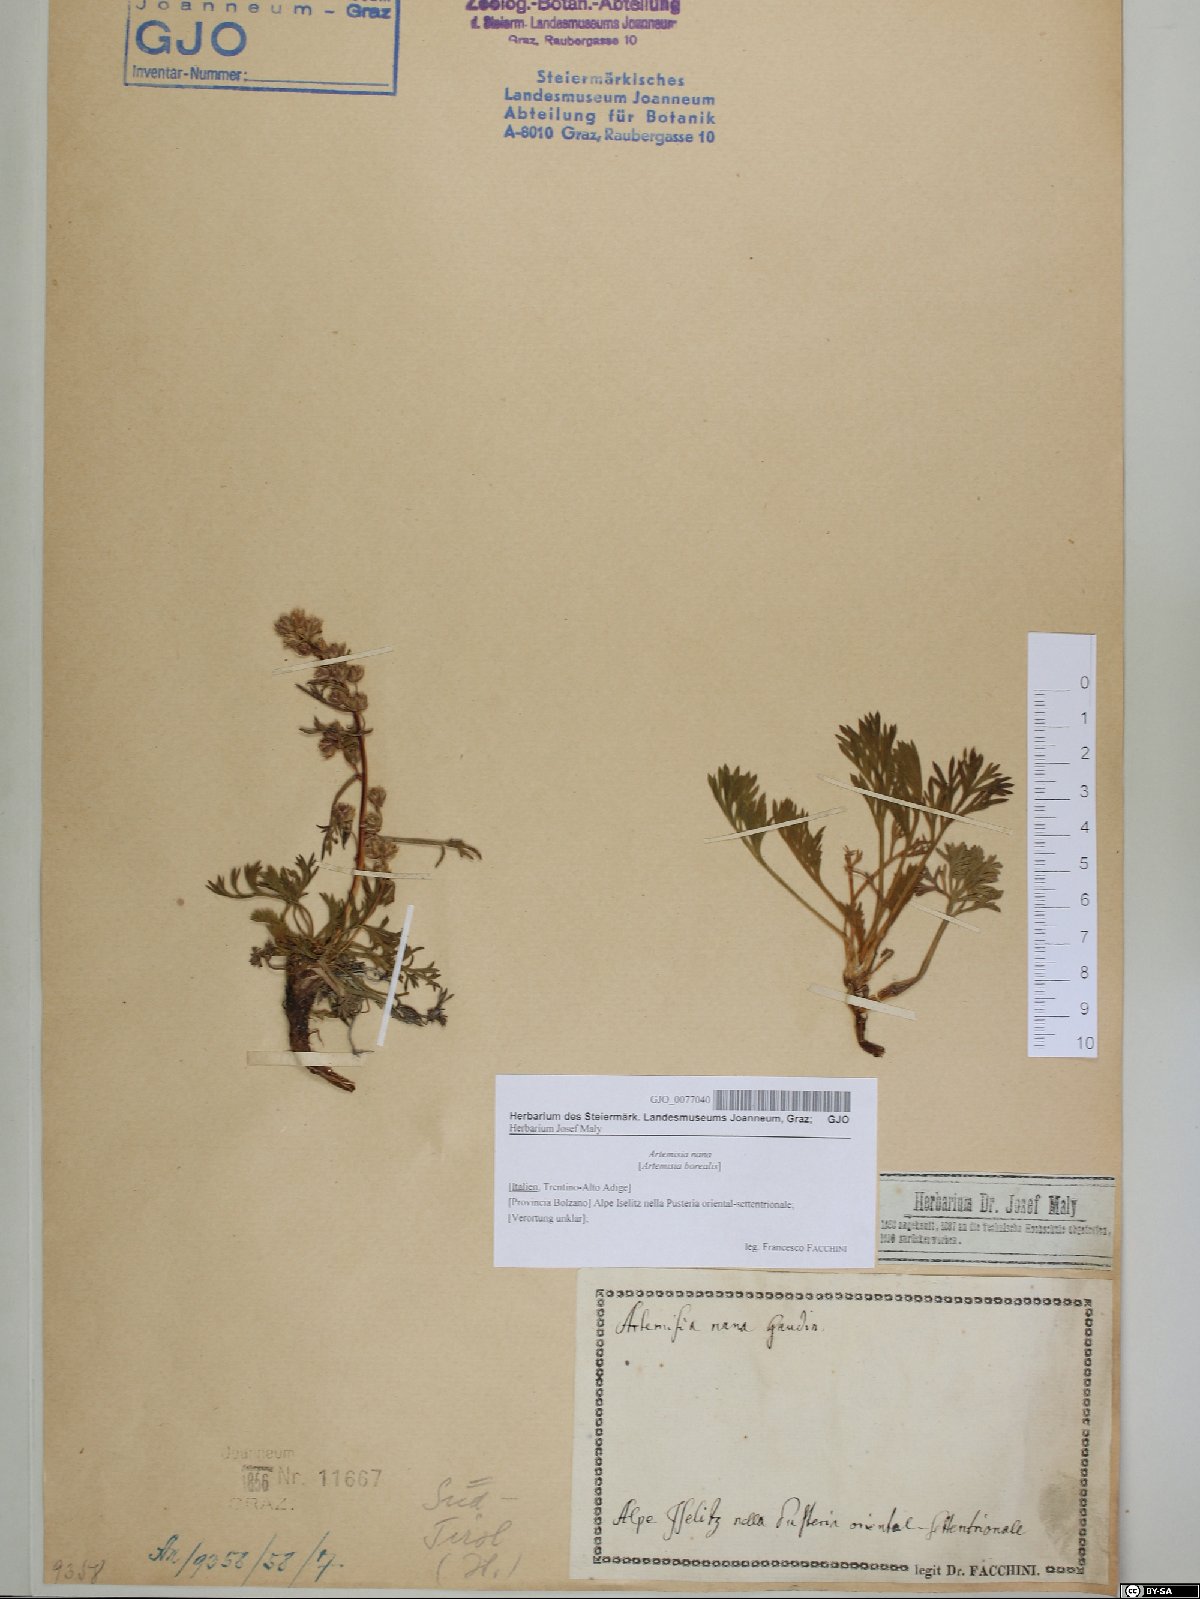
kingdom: Plantae
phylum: Tracheophyta
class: Magnoliopsida
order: Asterales
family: Asteraceae
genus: Artemisia
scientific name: Artemisia borealis
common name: Boreal sage
